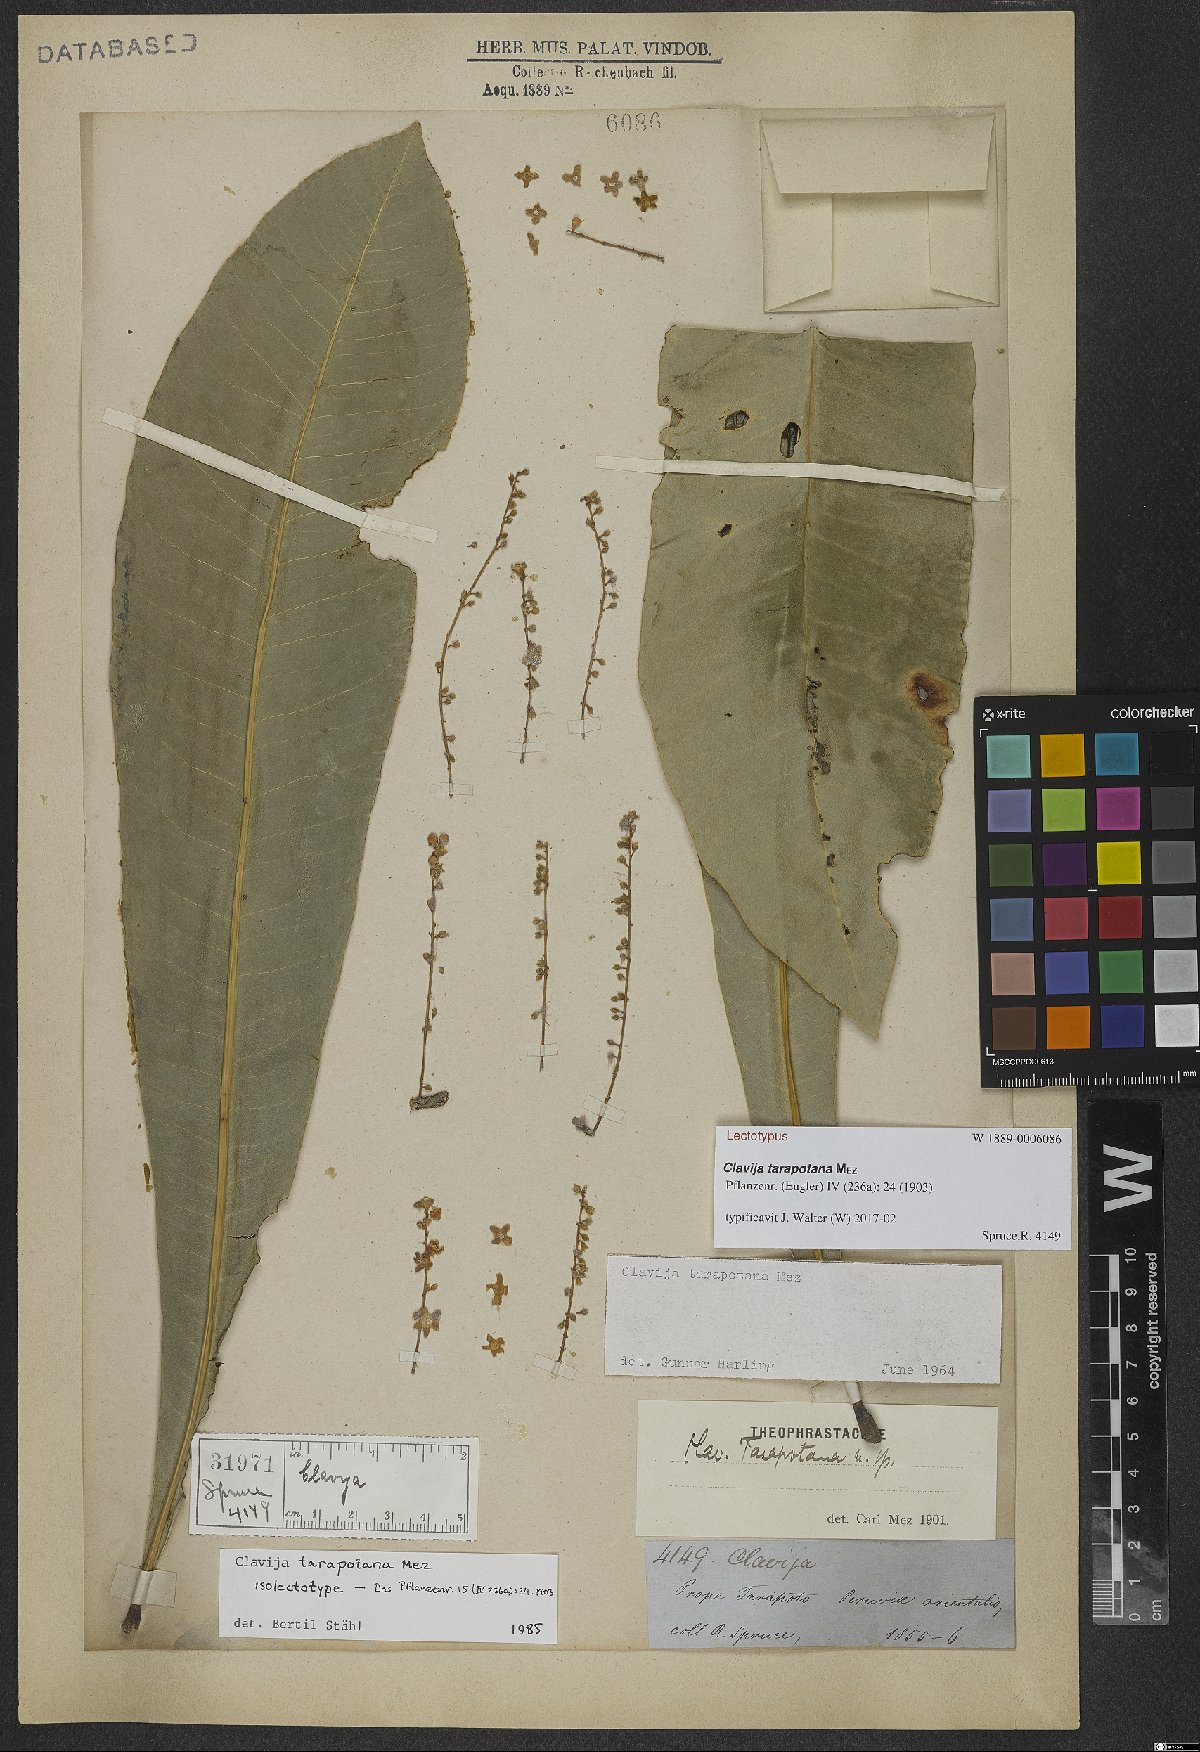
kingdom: Plantae
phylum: Tracheophyta
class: Magnoliopsida
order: Ericales
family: Primulaceae
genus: Clavija
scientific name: Clavija tarapotana
